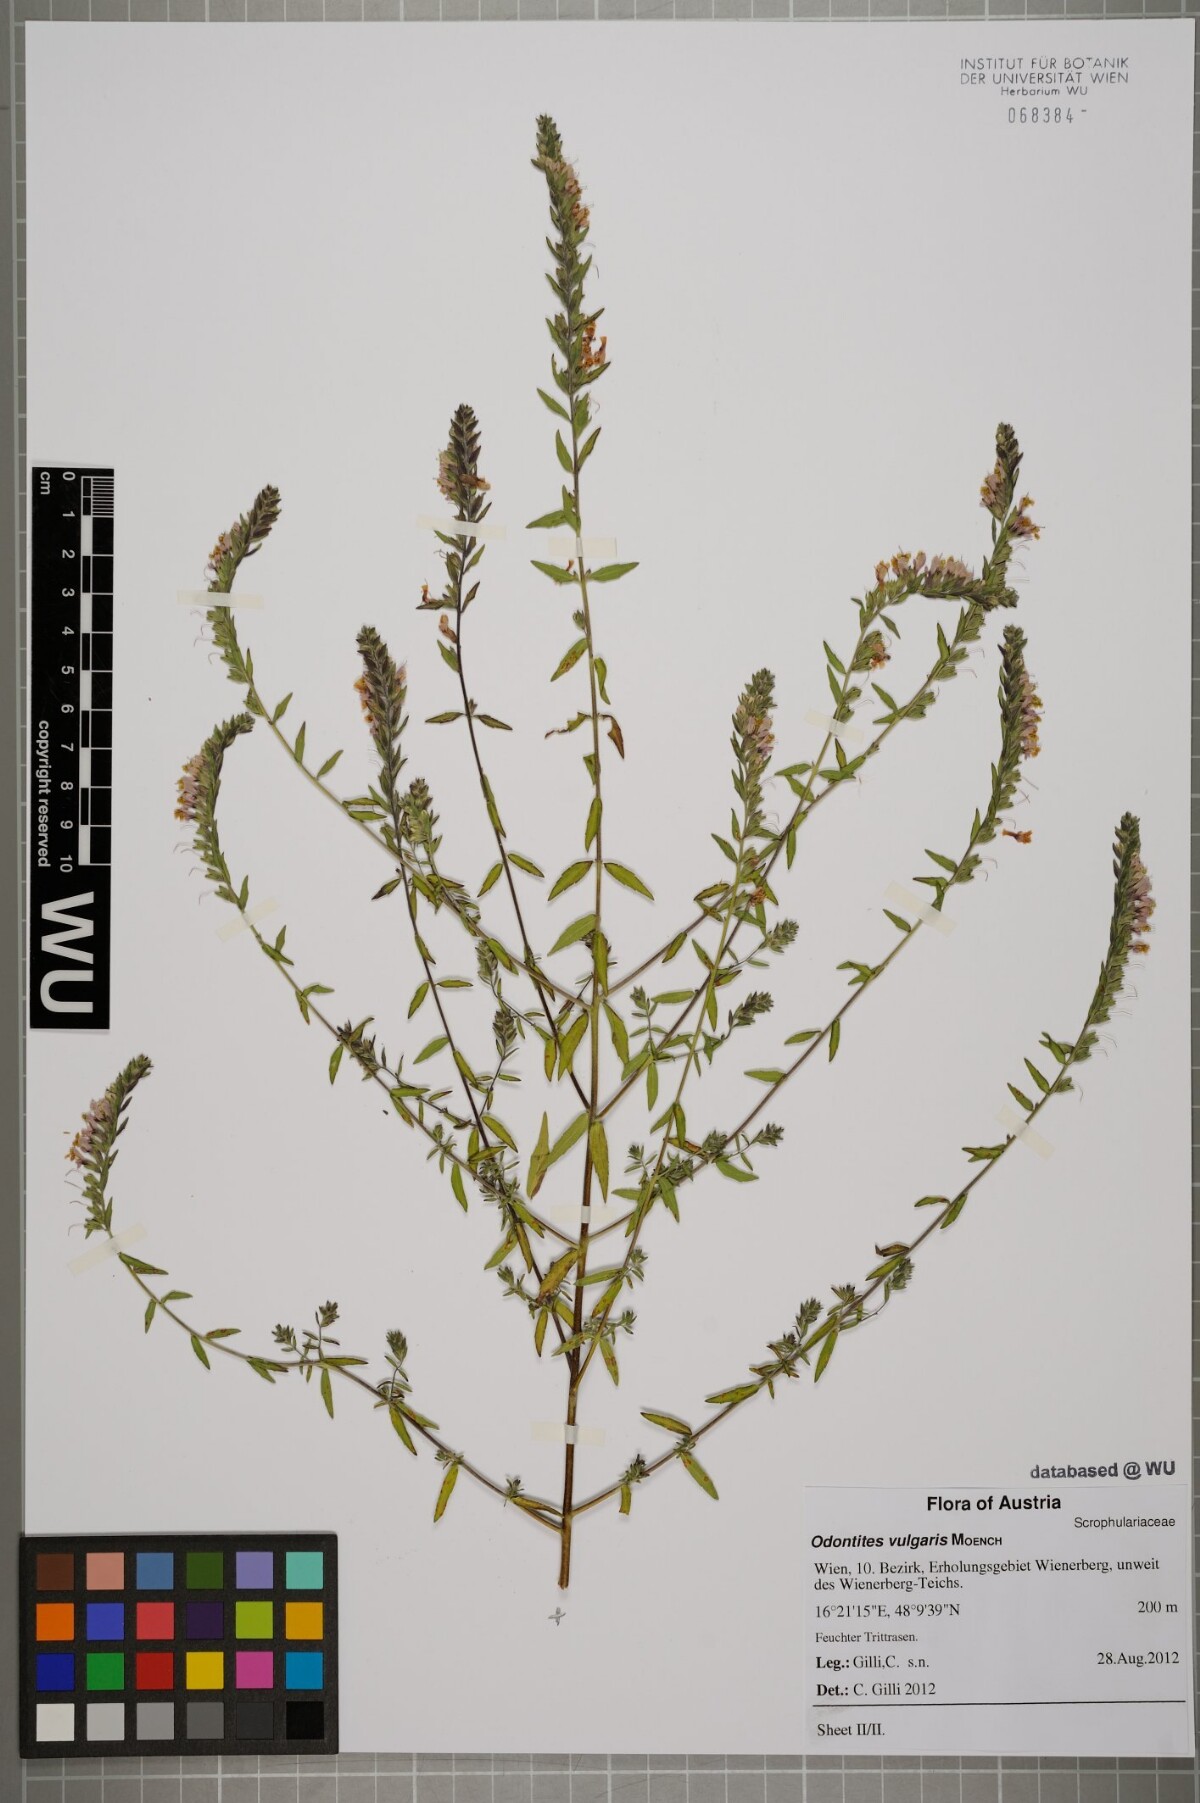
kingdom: Plantae
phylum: Tracheophyta
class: Magnoliopsida
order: Lamiales
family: Orobanchaceae
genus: Odontites
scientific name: Odontites vulgaris
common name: Broomrape
